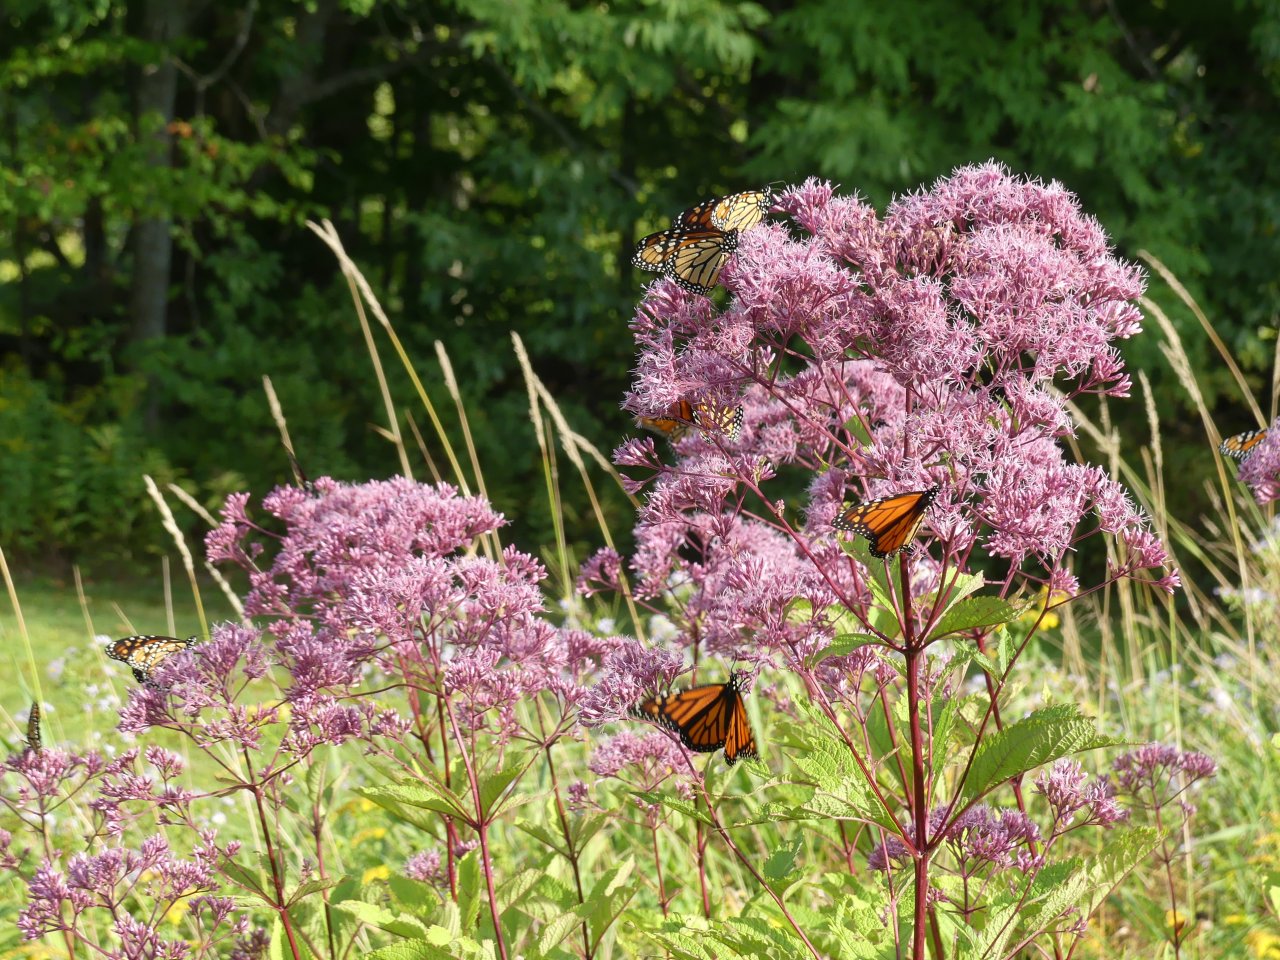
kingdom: Animalia
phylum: Arthropoda
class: Insecta
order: Lepidoptera
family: Nymphalidae
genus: Danaus
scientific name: Danaus plexippus
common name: Monarch
